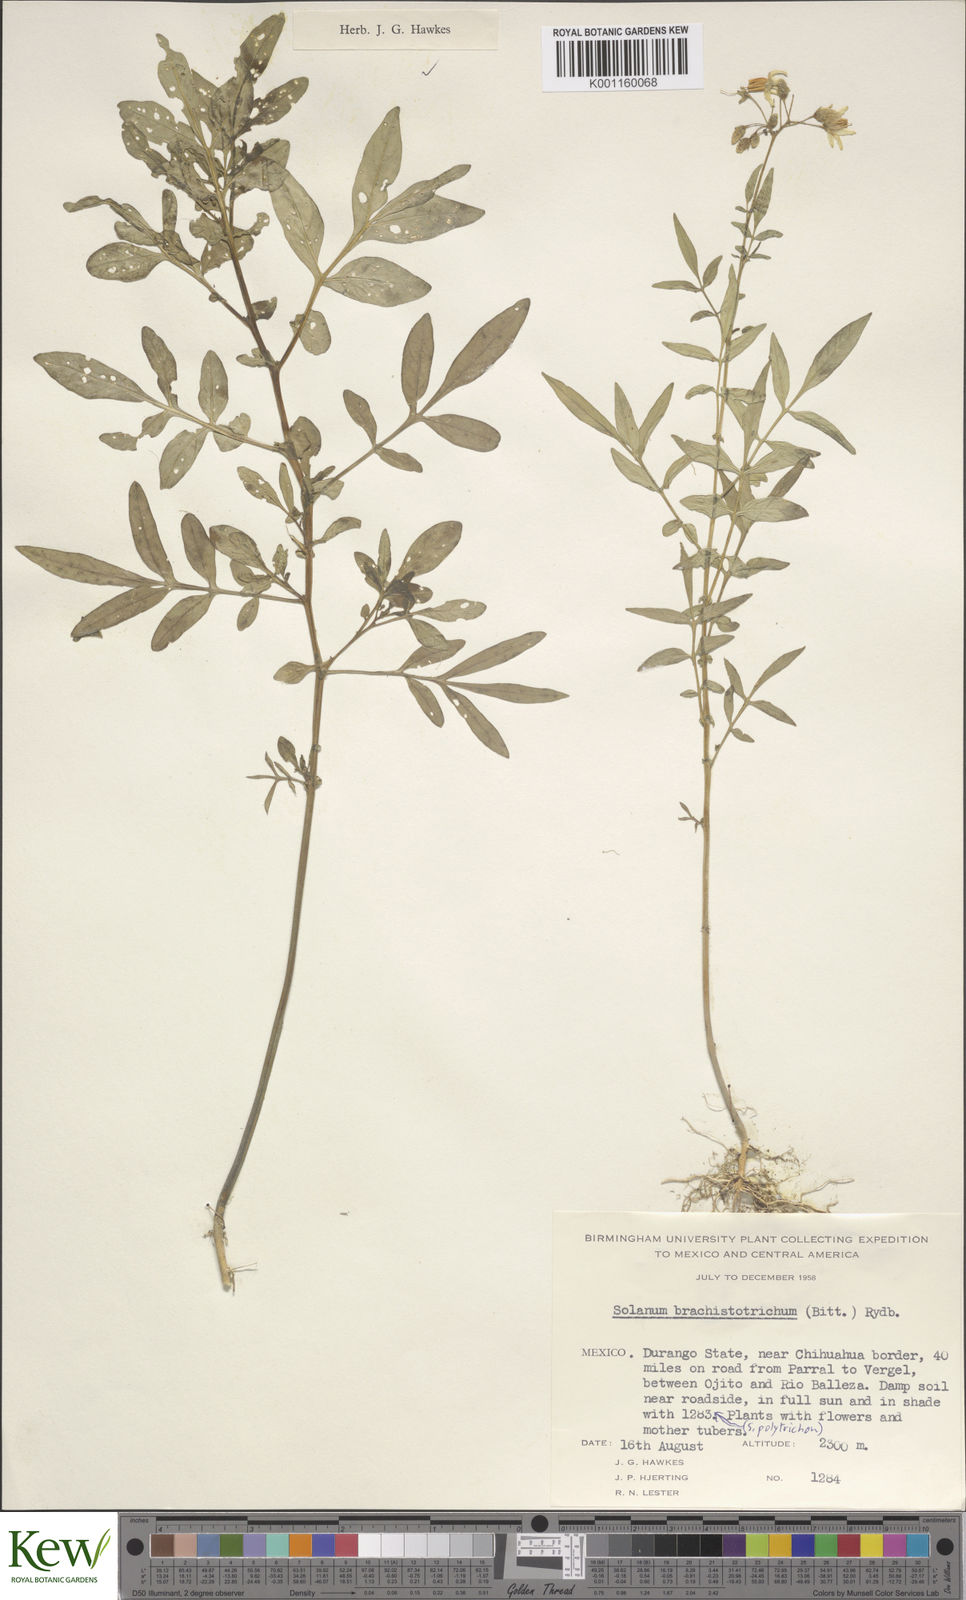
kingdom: Plantae
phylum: Tracheophyta
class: Magnoliopsida
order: Solanales
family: Solanaceae
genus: Solanum
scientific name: Solanum
